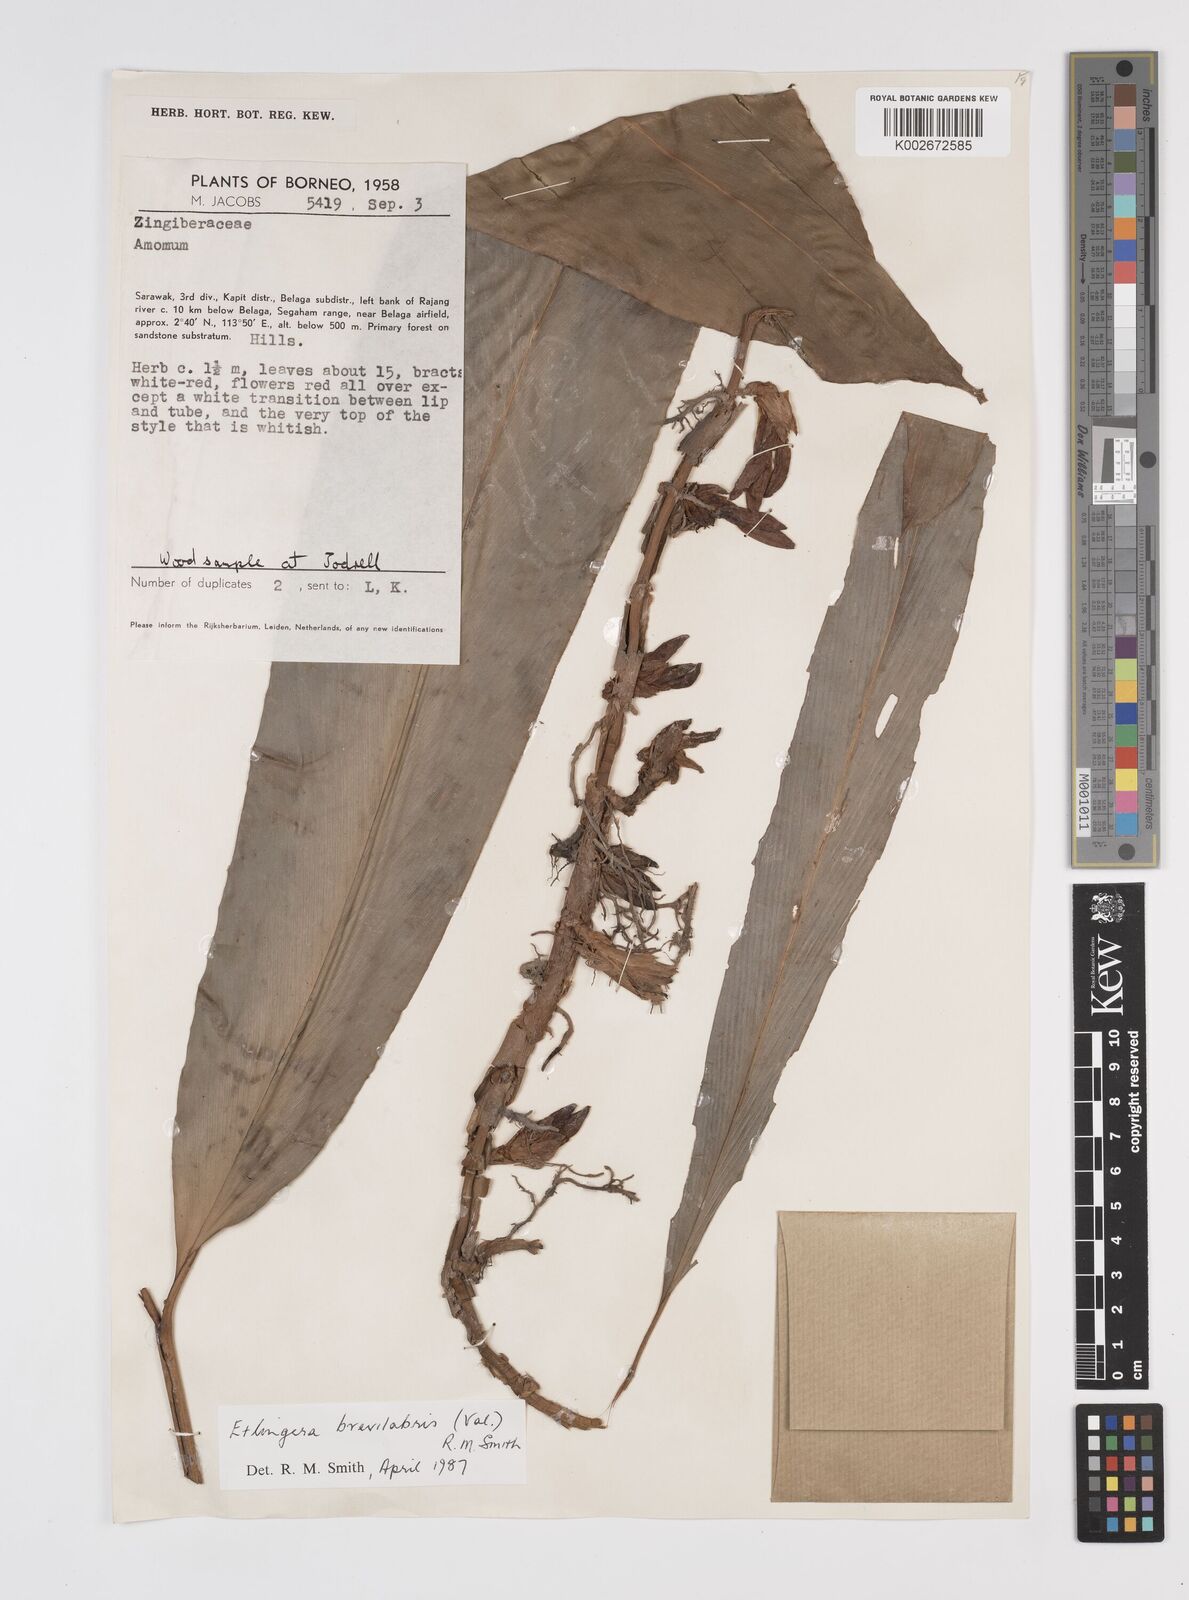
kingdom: Plantae
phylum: Tracheophyta
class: Liliopsida
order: Zingiberales
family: Zingiberaceae
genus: Etlingera
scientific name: Etlingera
